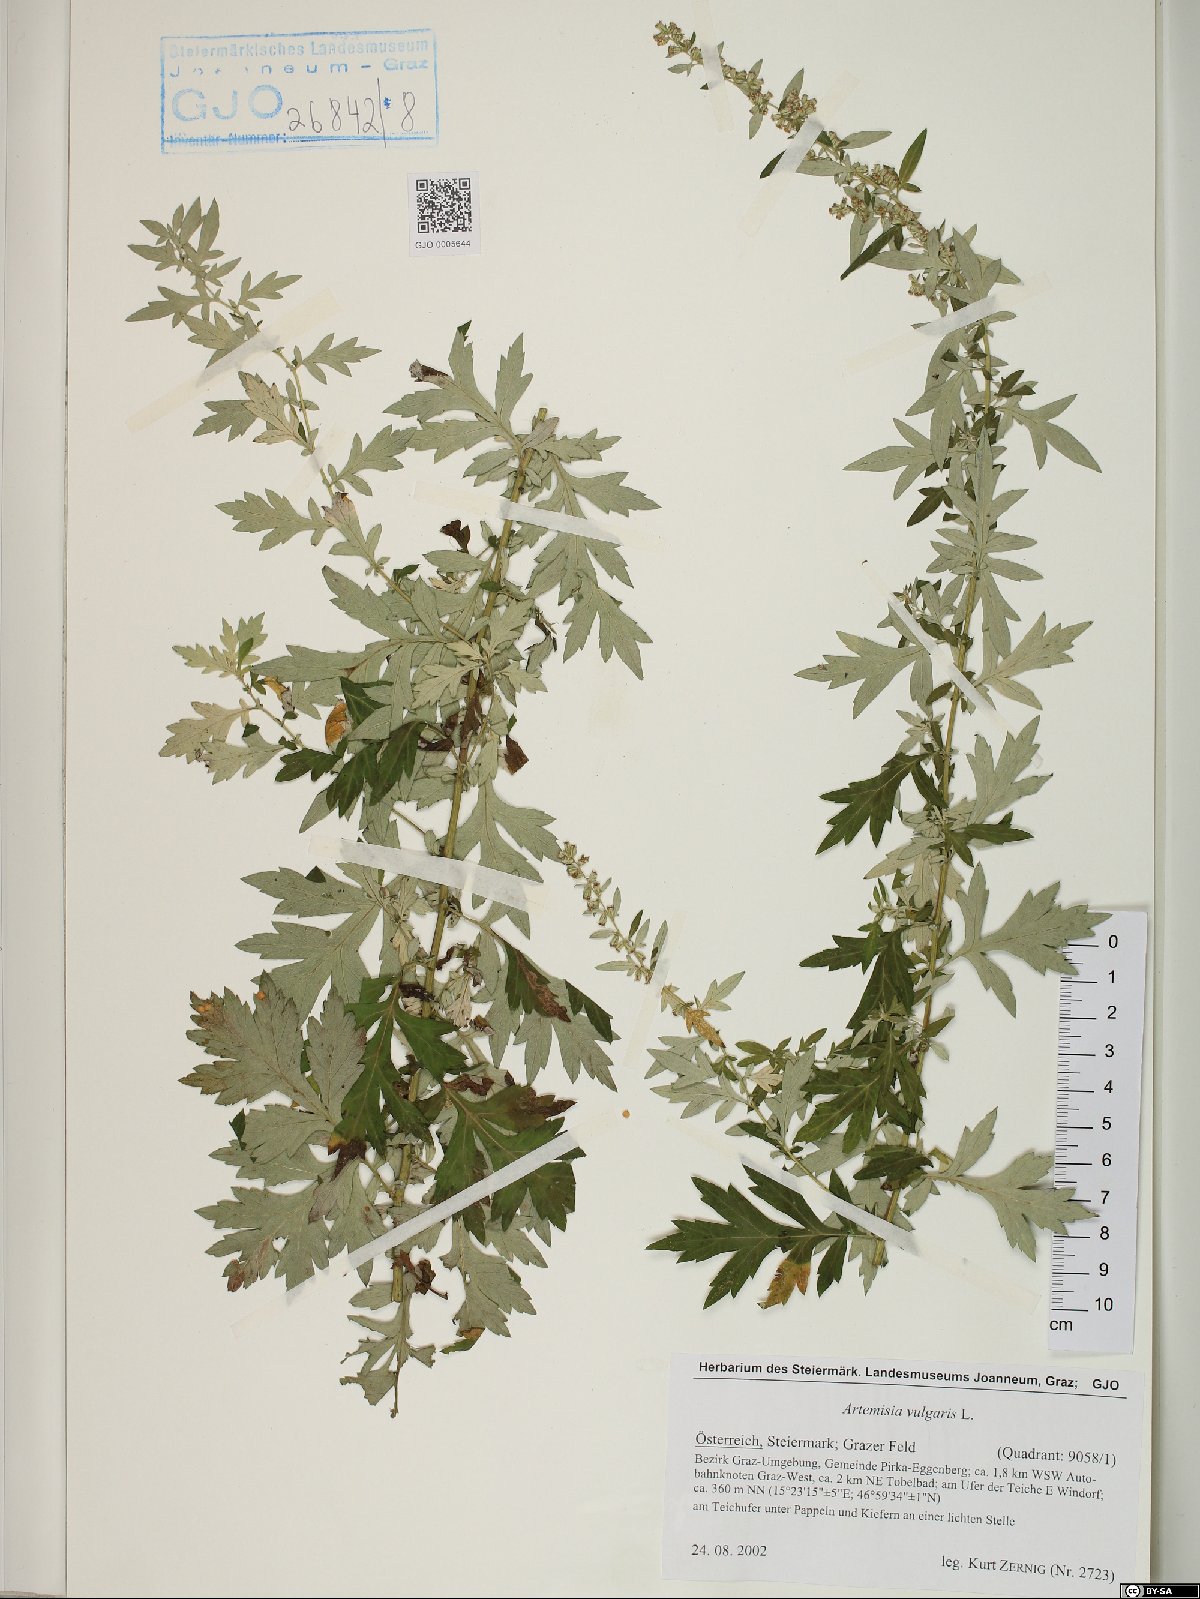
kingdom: Plantae
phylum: Tracheophyta
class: Magnoliopsida
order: Asterales
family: Asteraceae
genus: Artemisia
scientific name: Artemisia vulgaris
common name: Mugwort
